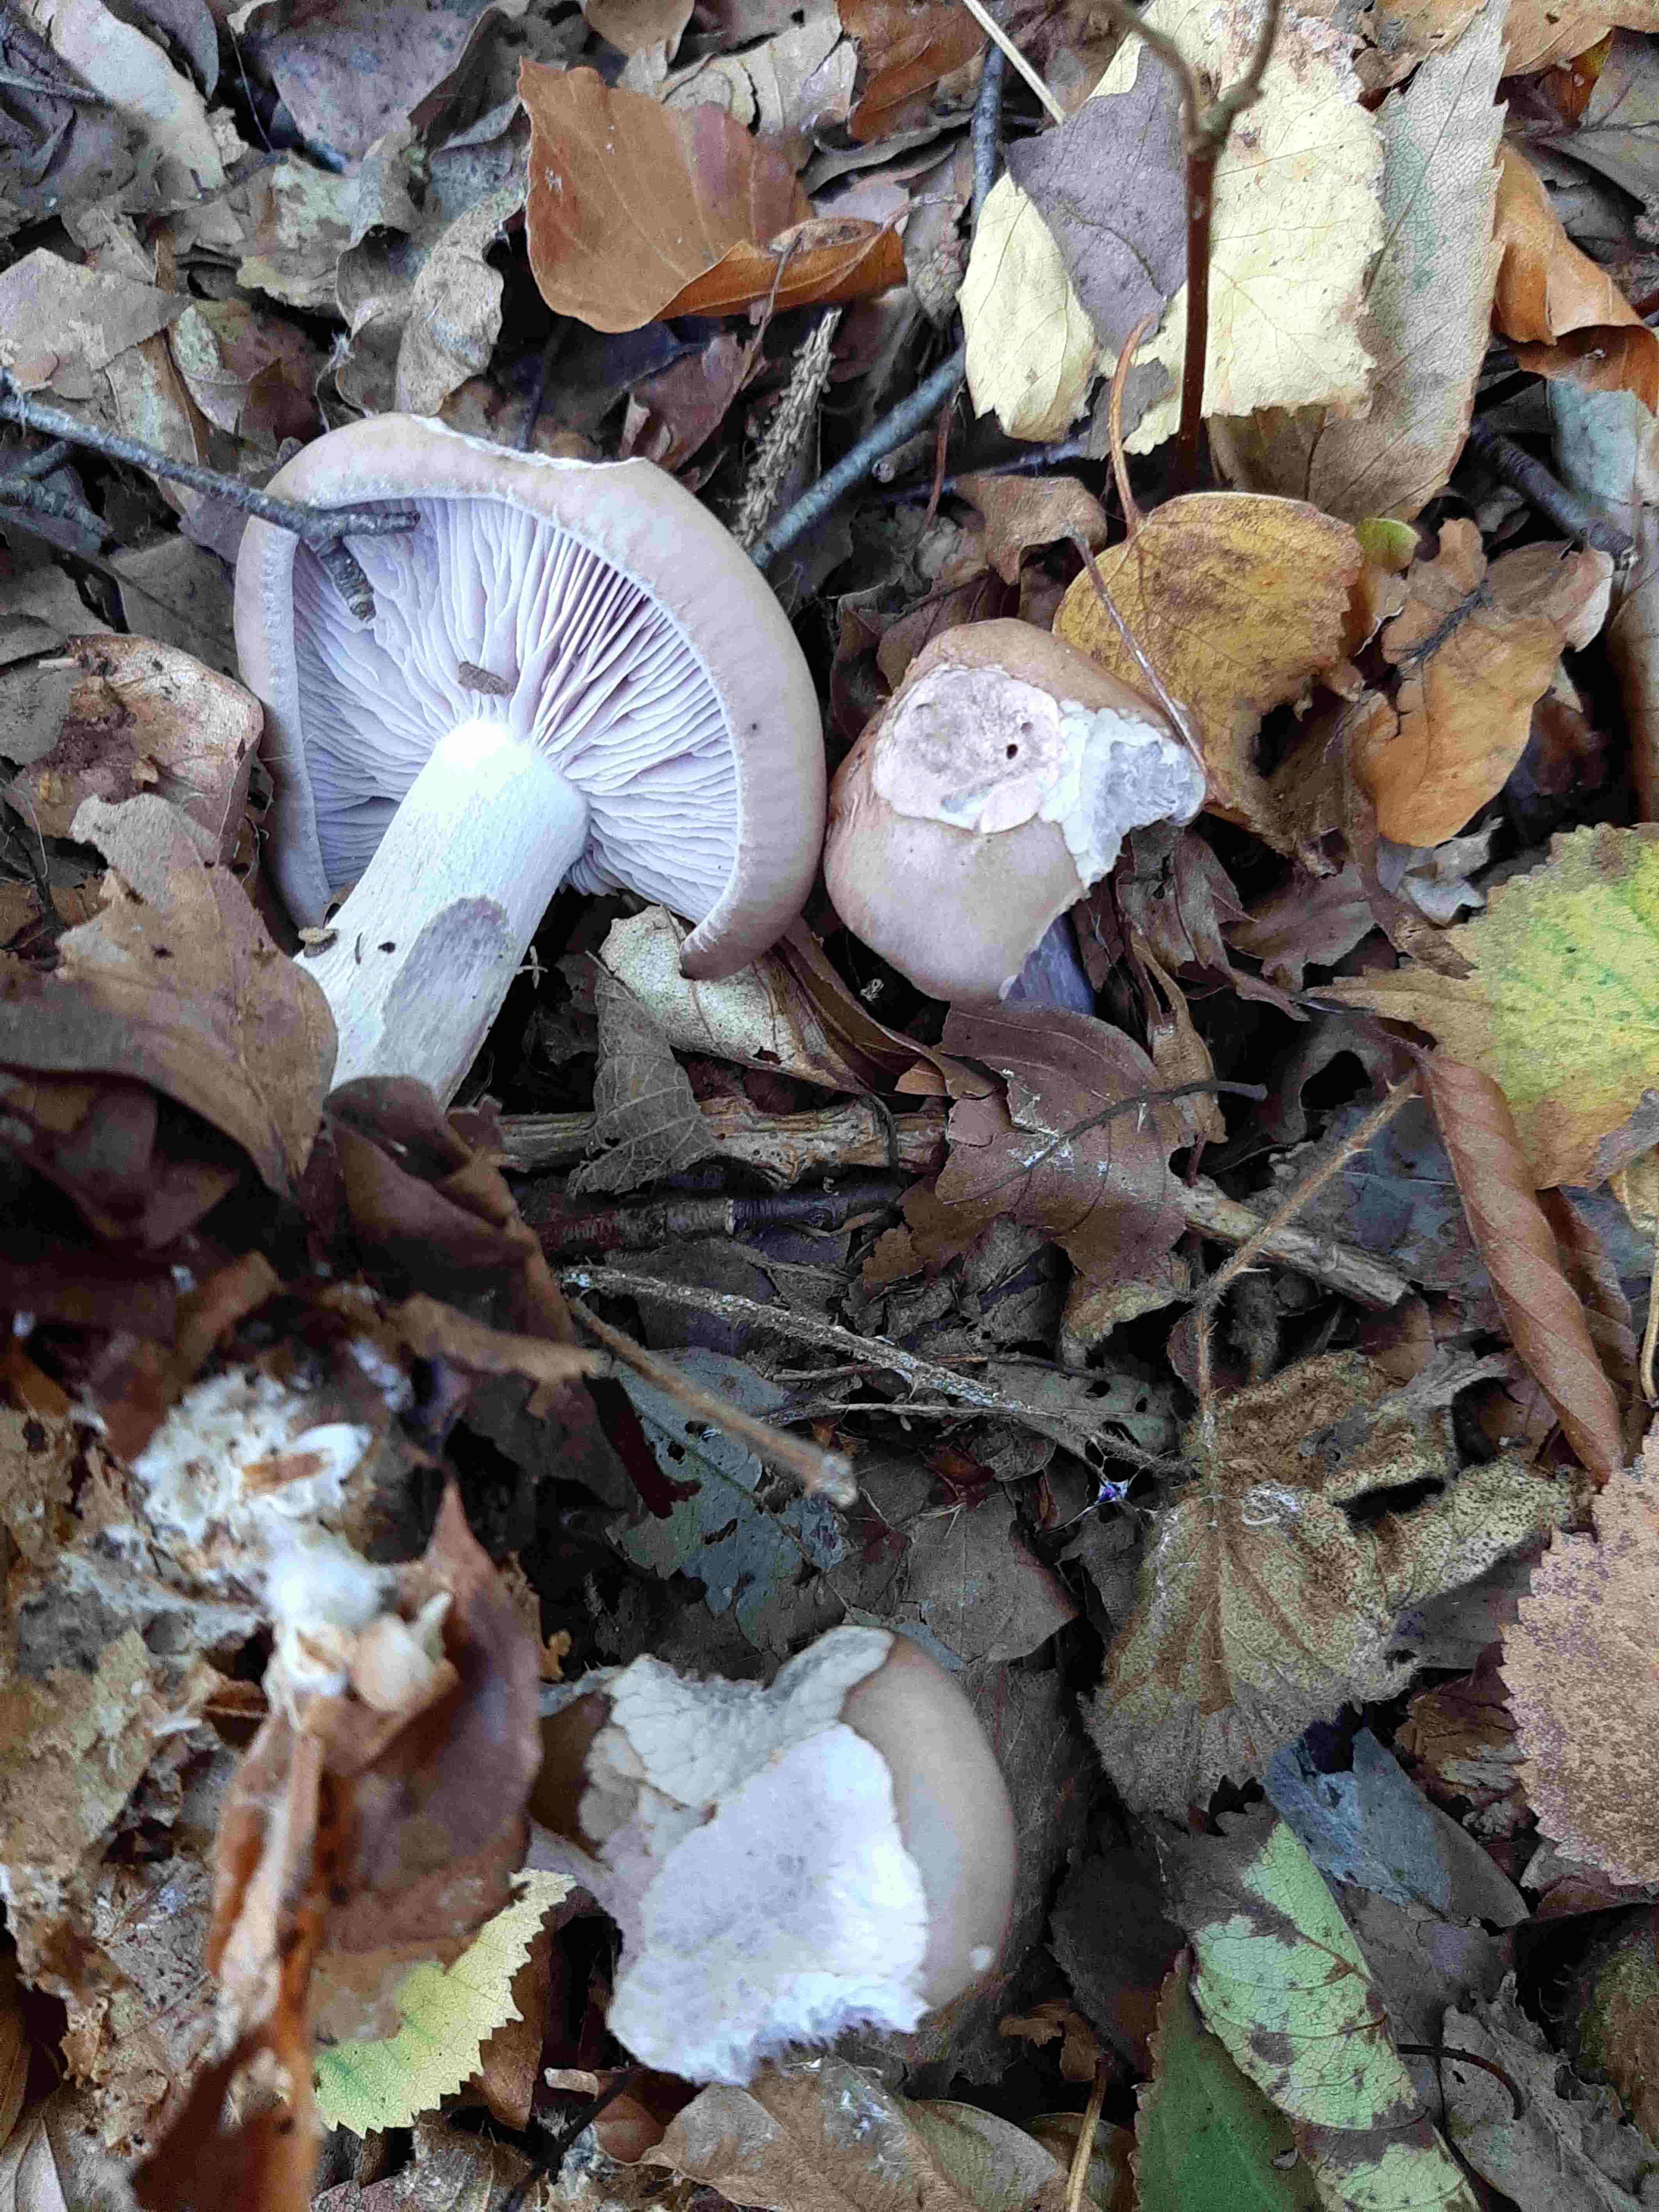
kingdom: Fungi
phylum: Basidiomycota
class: Agaricomycetes
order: Agaricales
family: Tricholomataceae
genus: Lepista
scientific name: Lepista nuda
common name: violet hekseringshat
